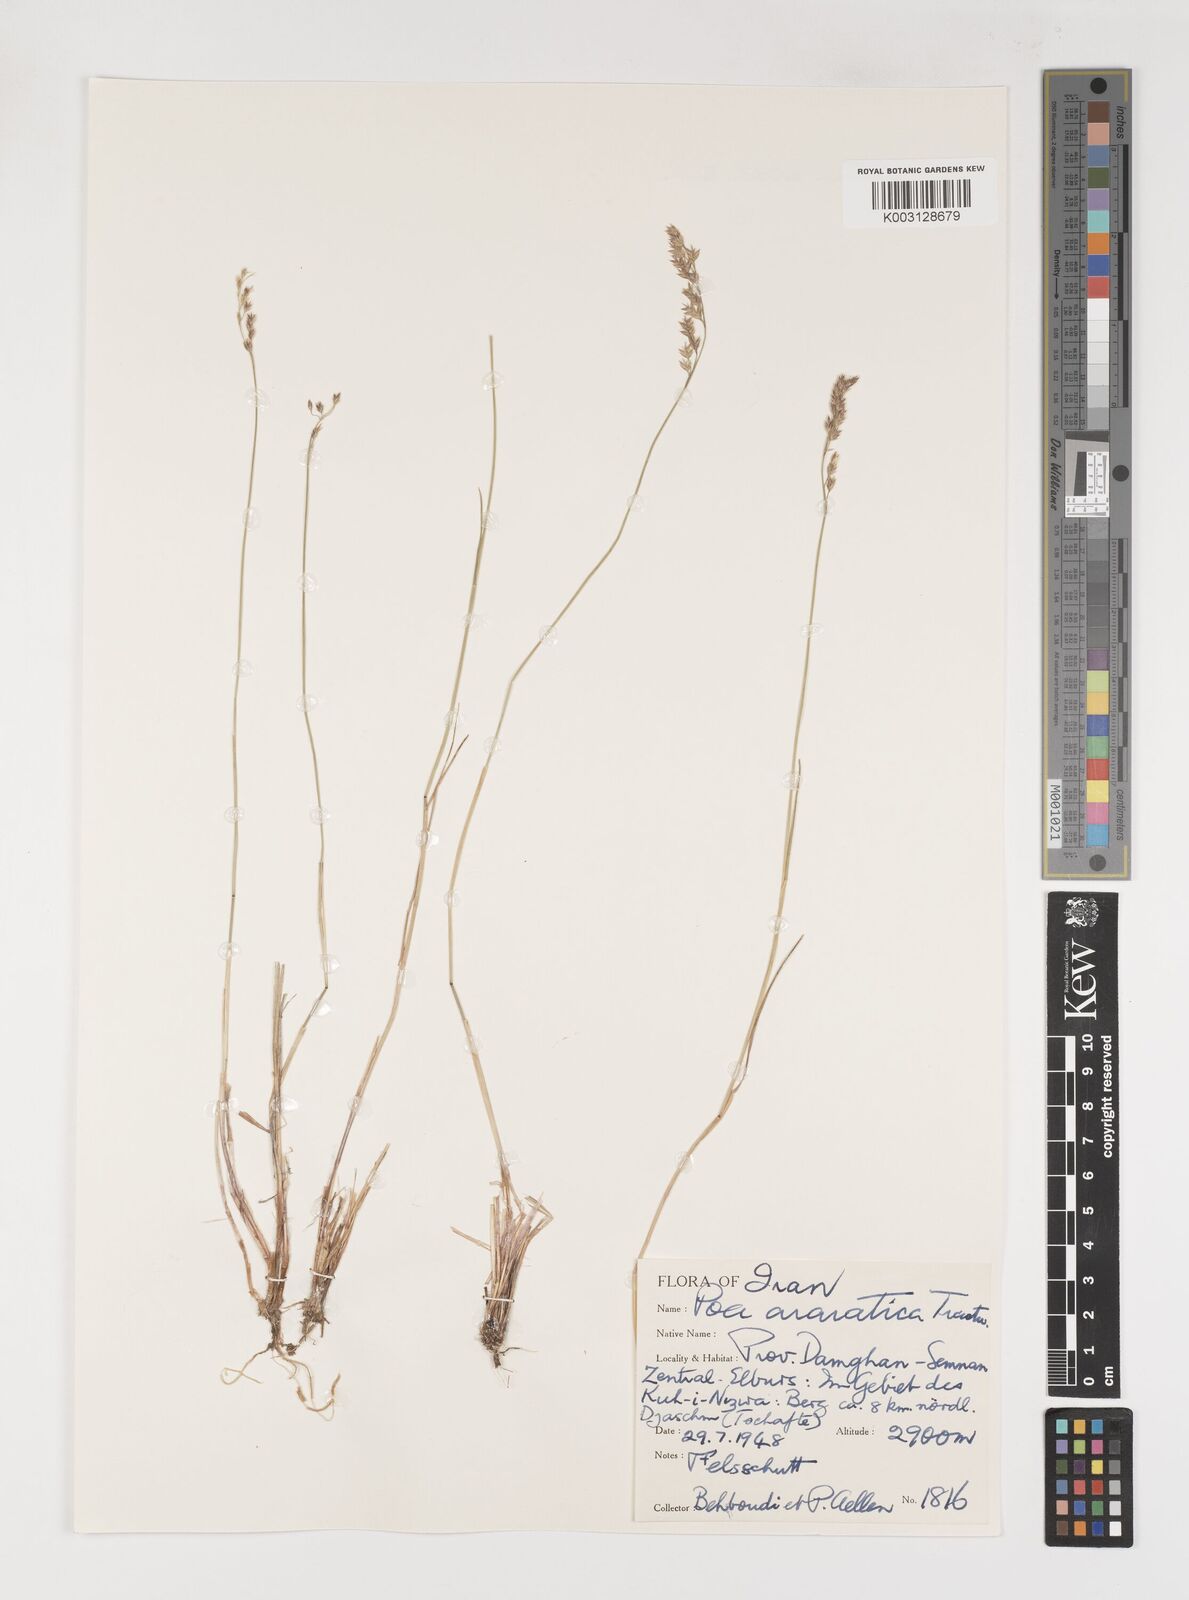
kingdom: Plantae
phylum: Tracheophyta
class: Liliopsida
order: Poales
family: Poaceae
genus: Poa
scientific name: Poa araratica
